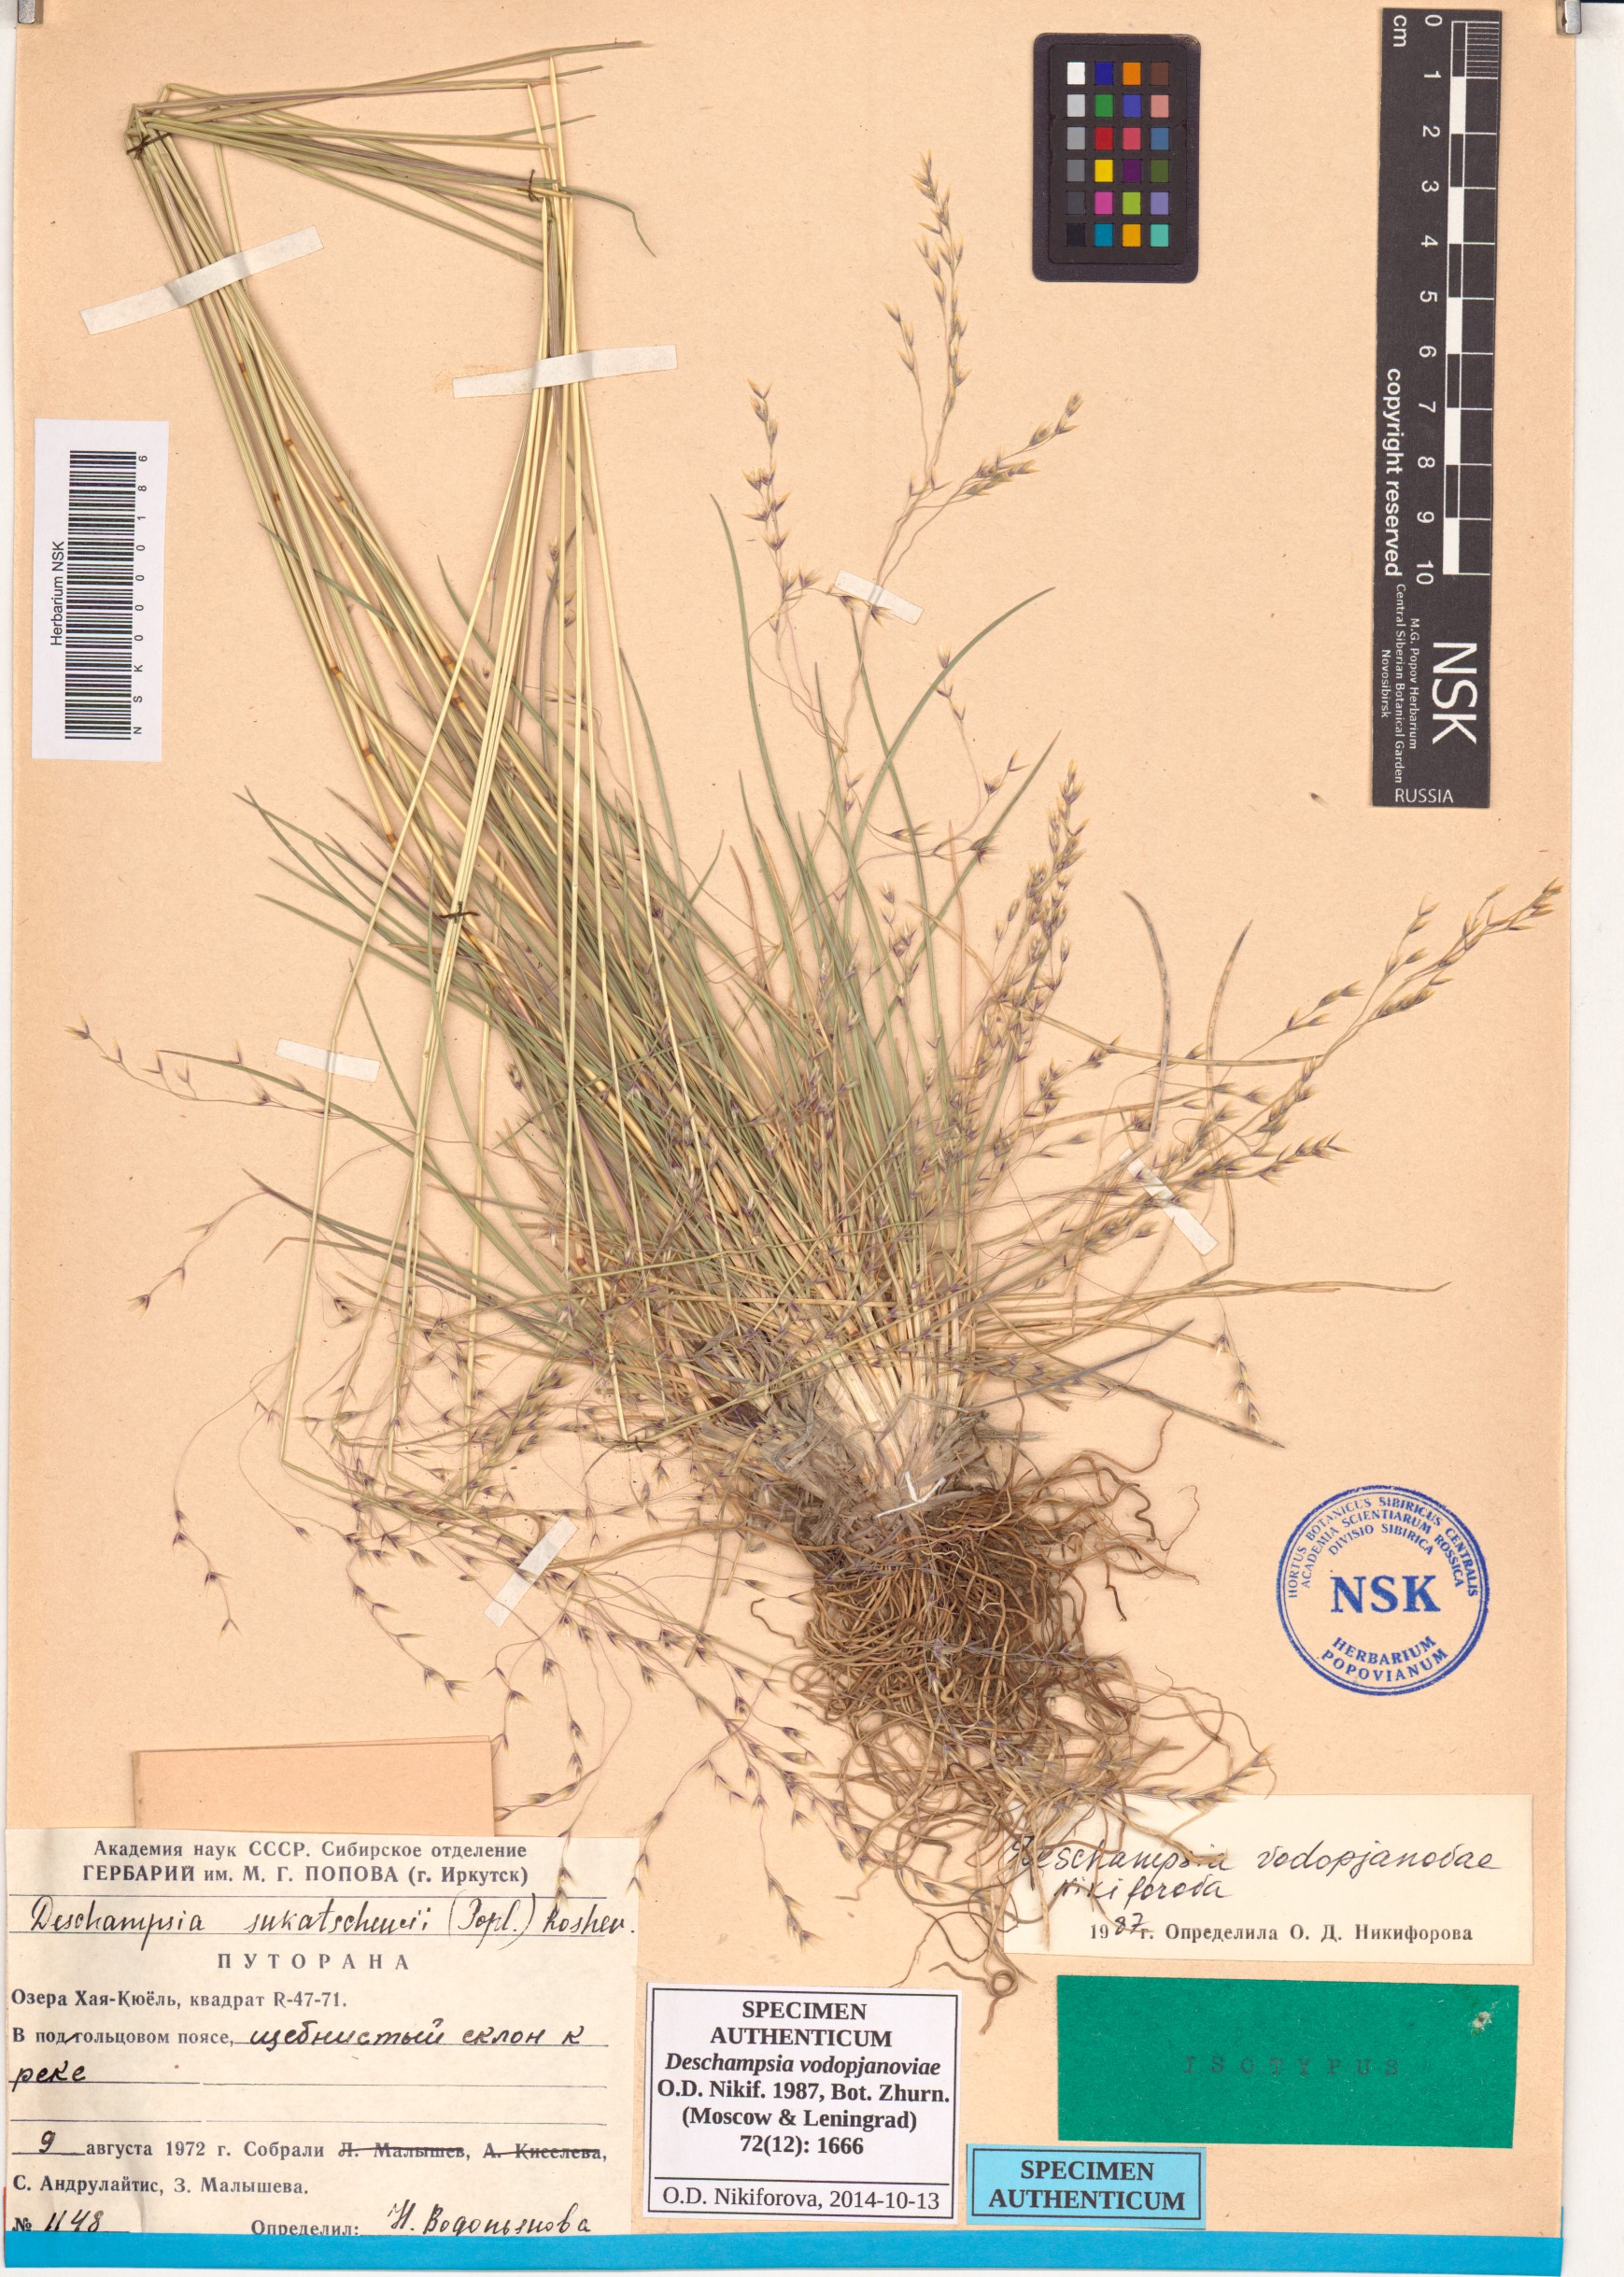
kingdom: Plantae
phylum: Tracheophyta
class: Liliopsida
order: Poales
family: Poaceae
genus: Deschampsia
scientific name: Deschampsia cespitosa
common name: Tufted hair-grass
